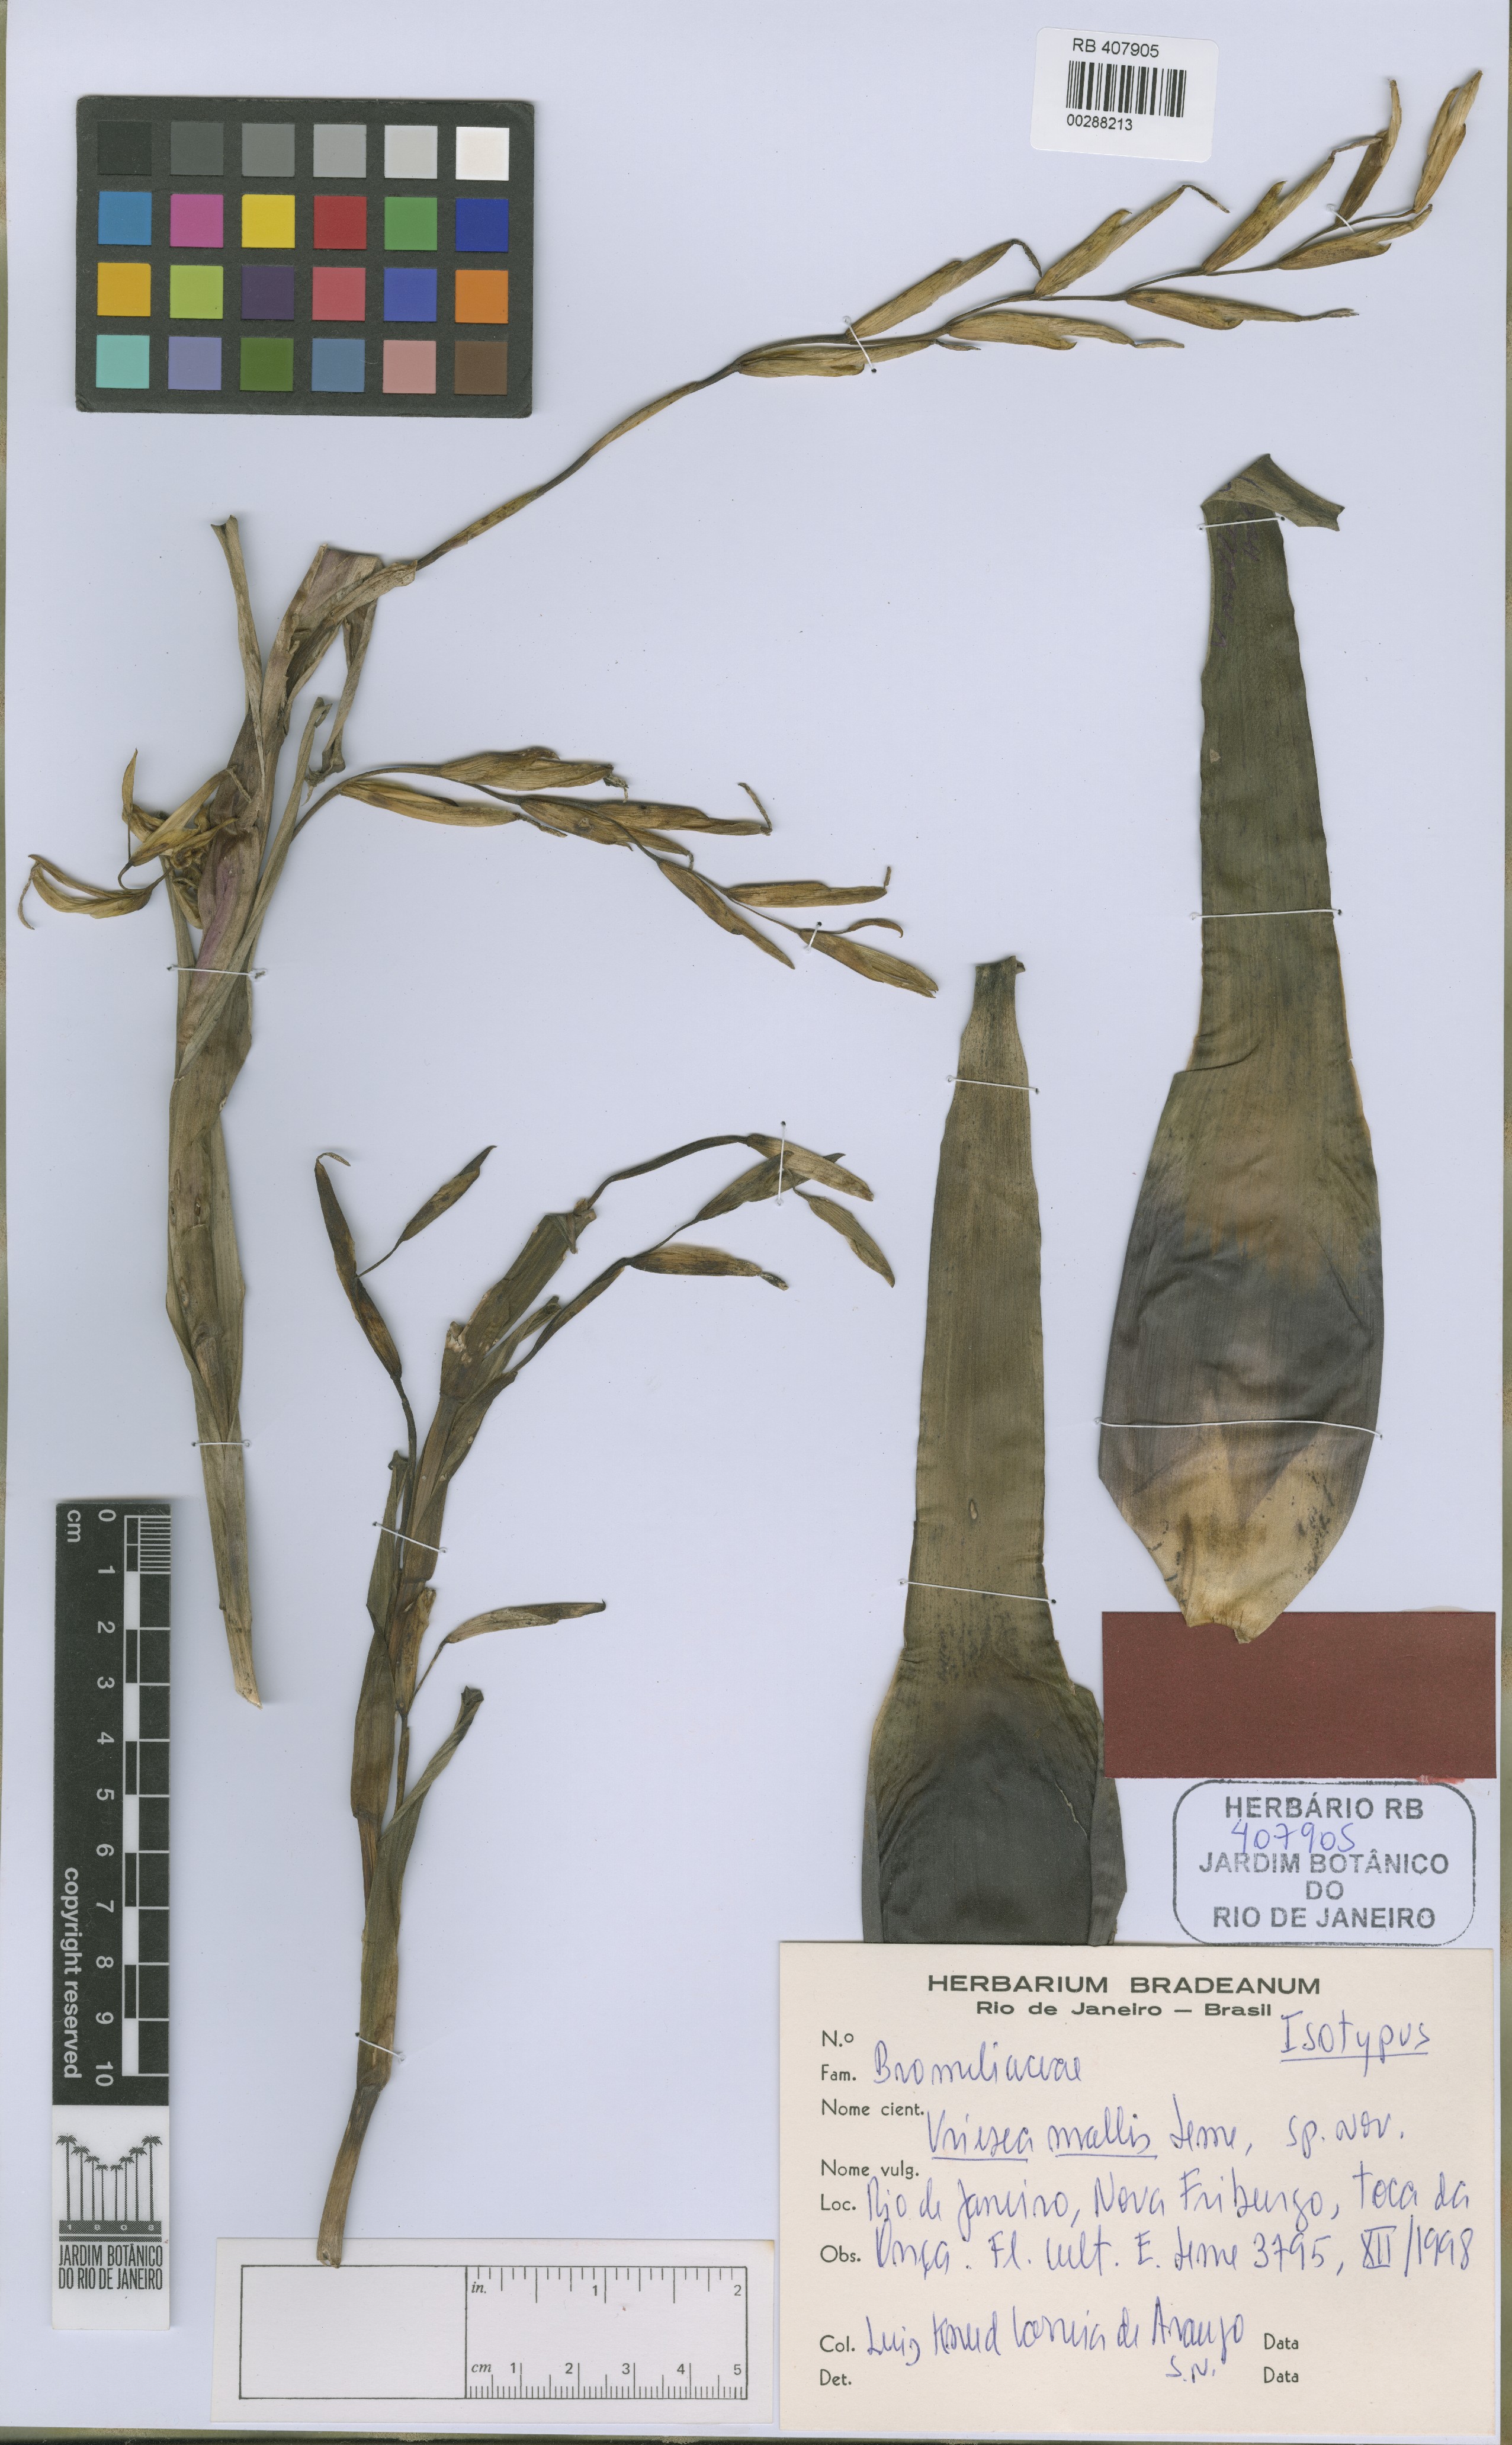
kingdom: Plantae
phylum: Tracheophyta
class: Liliopsida
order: Poales
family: Bromeliaceae
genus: Vriesea
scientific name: Vriesea mollis
